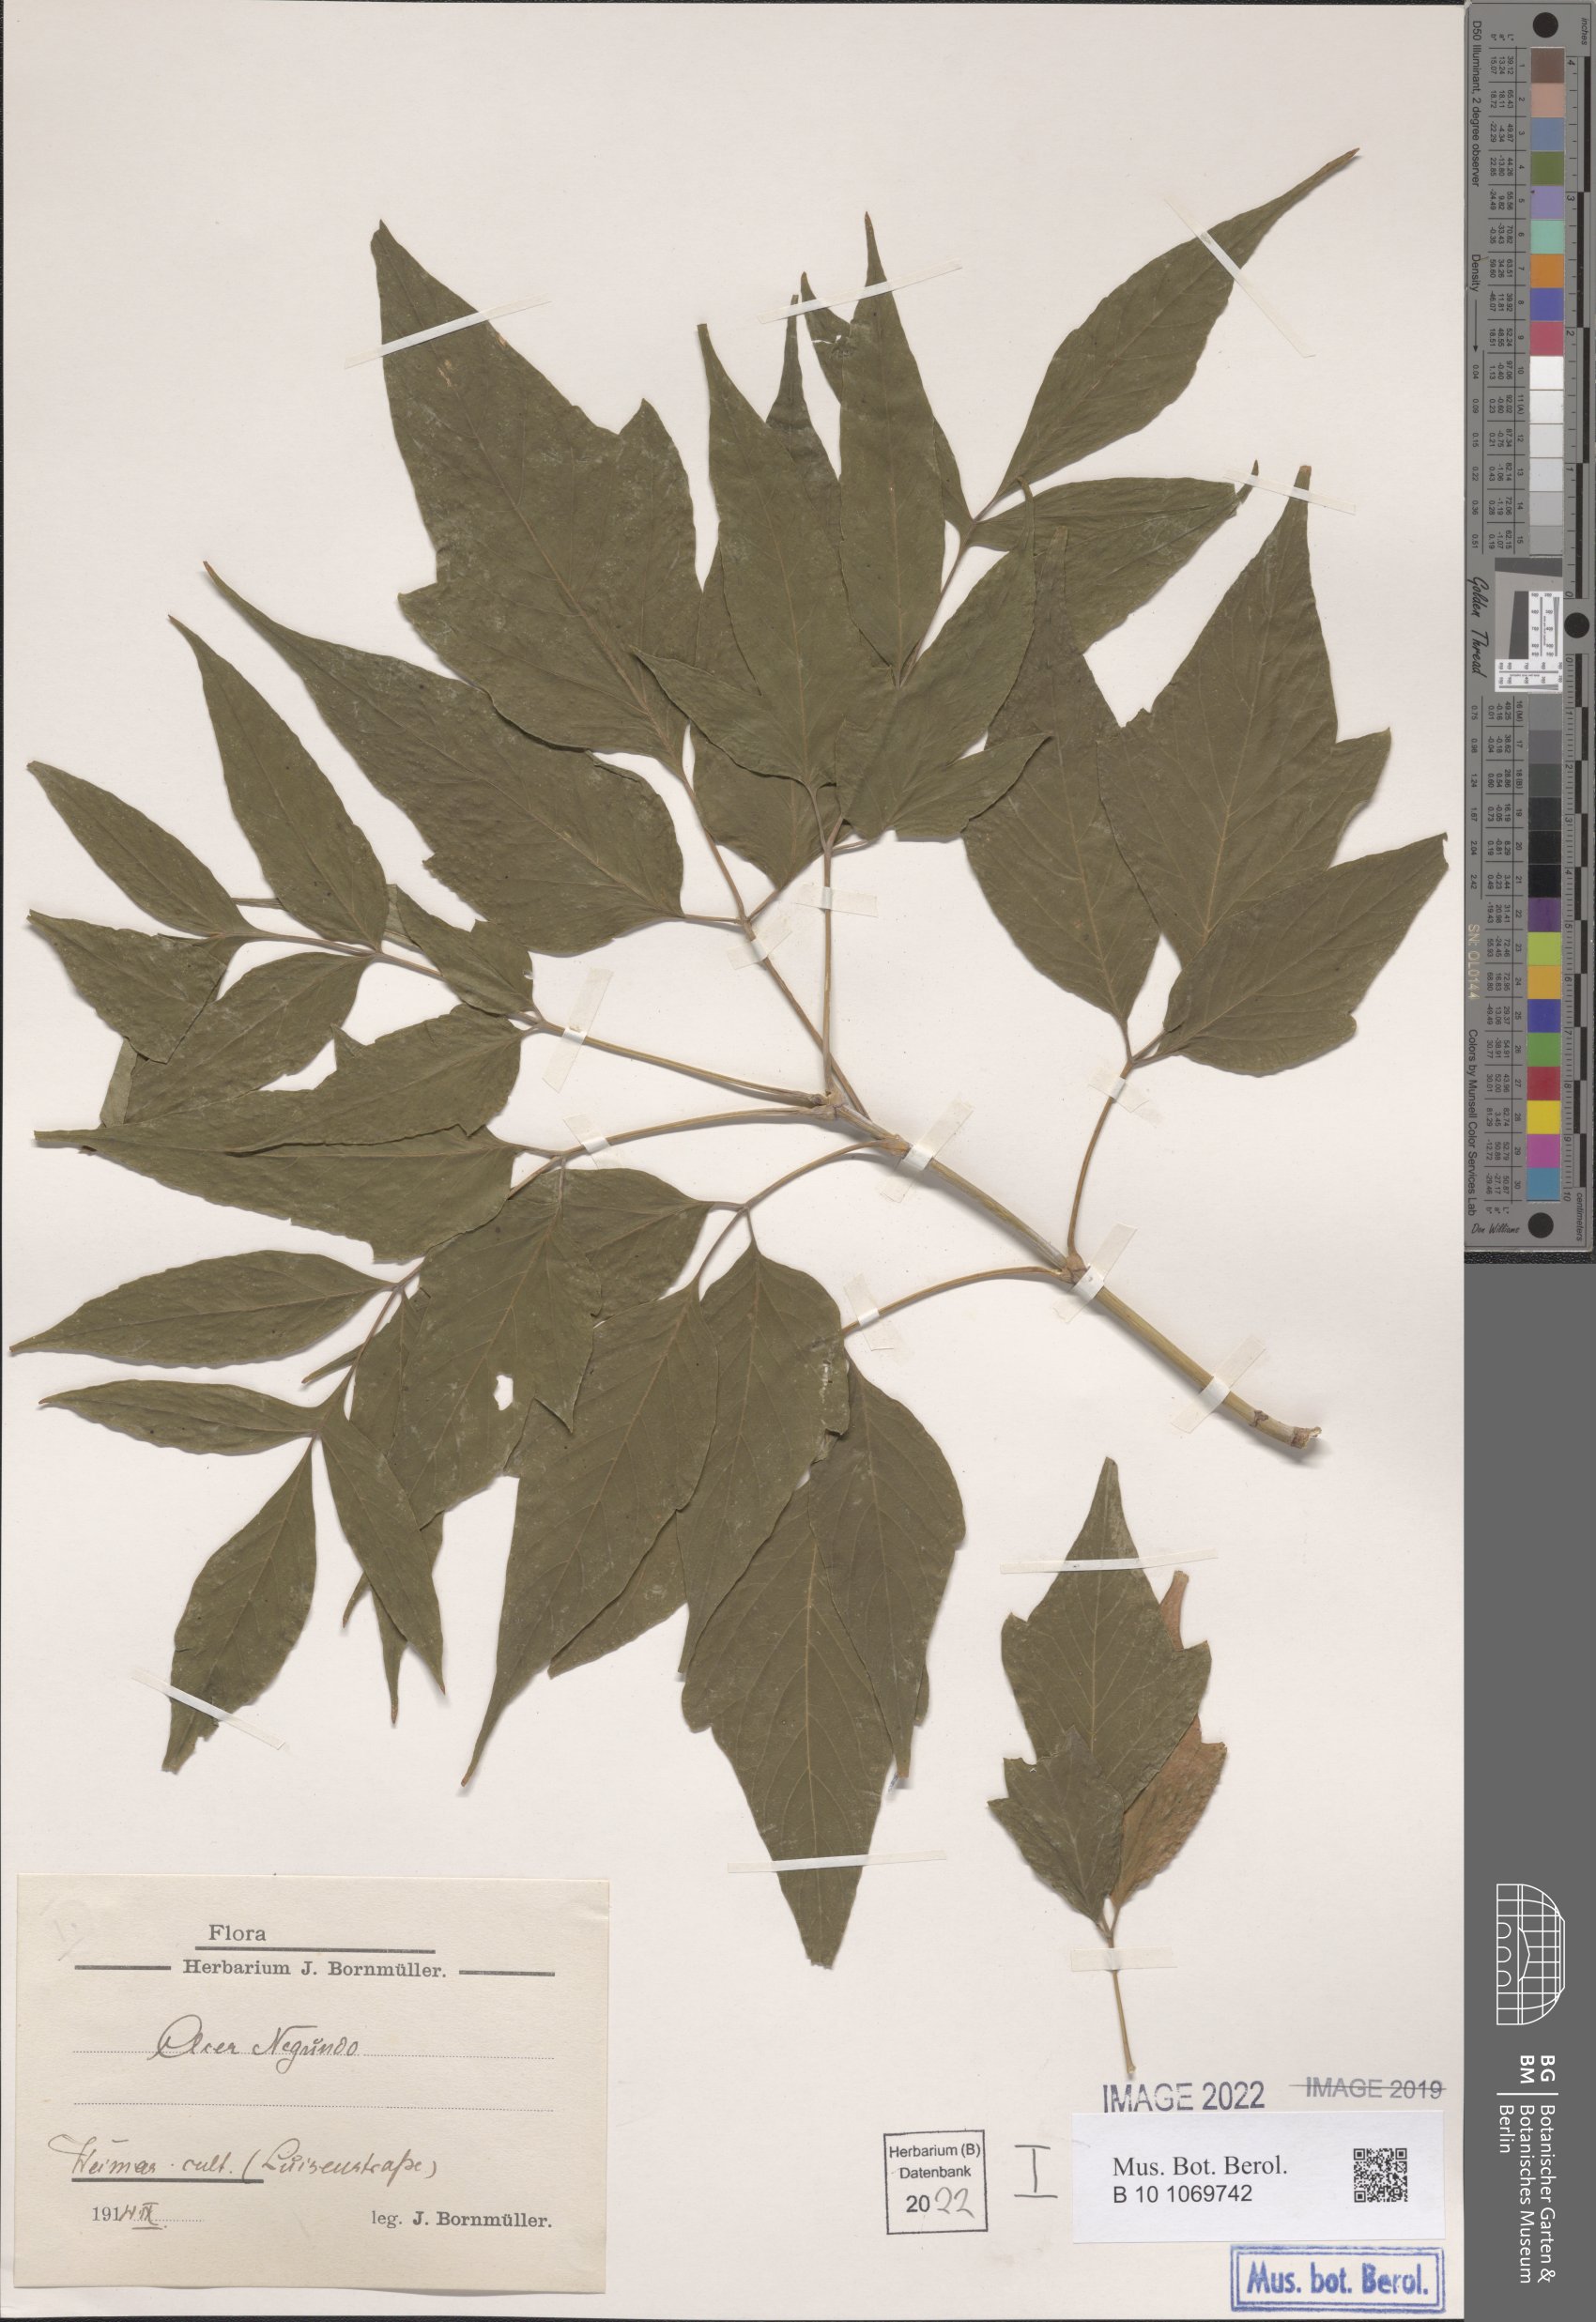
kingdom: Plantae
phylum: Tracheophyta
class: Magnoliopsida
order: Sapindales
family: Sapindaceae
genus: Acer
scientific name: Acer negundo
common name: Ashleaf maple
